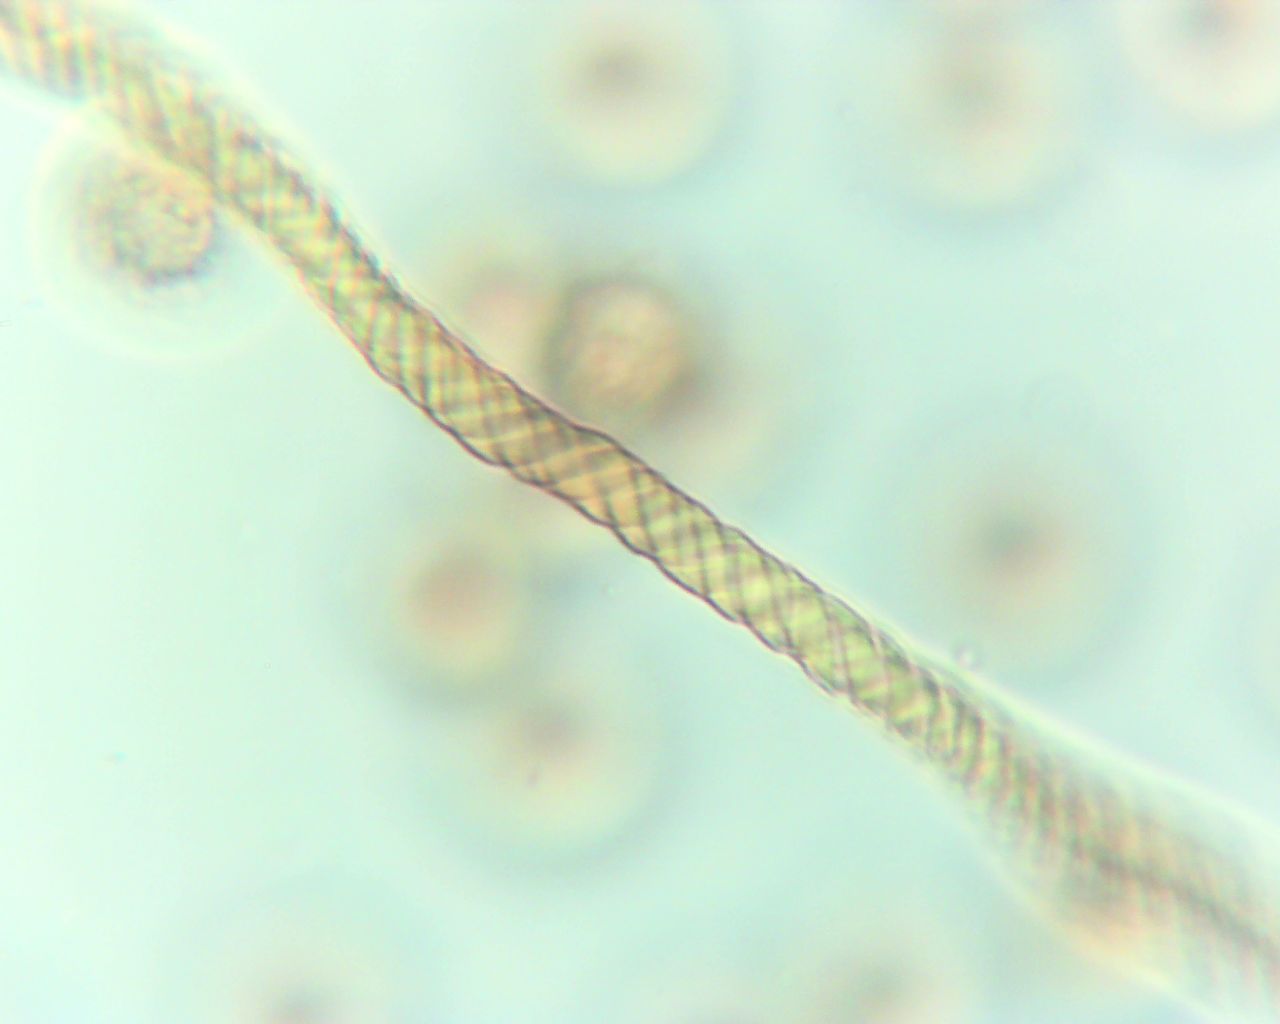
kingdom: Protozoa
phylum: Mycetozoa
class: Myxomycetes
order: Trichiales
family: Trichiaceae
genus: Trichia
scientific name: Trichia crateriformis
